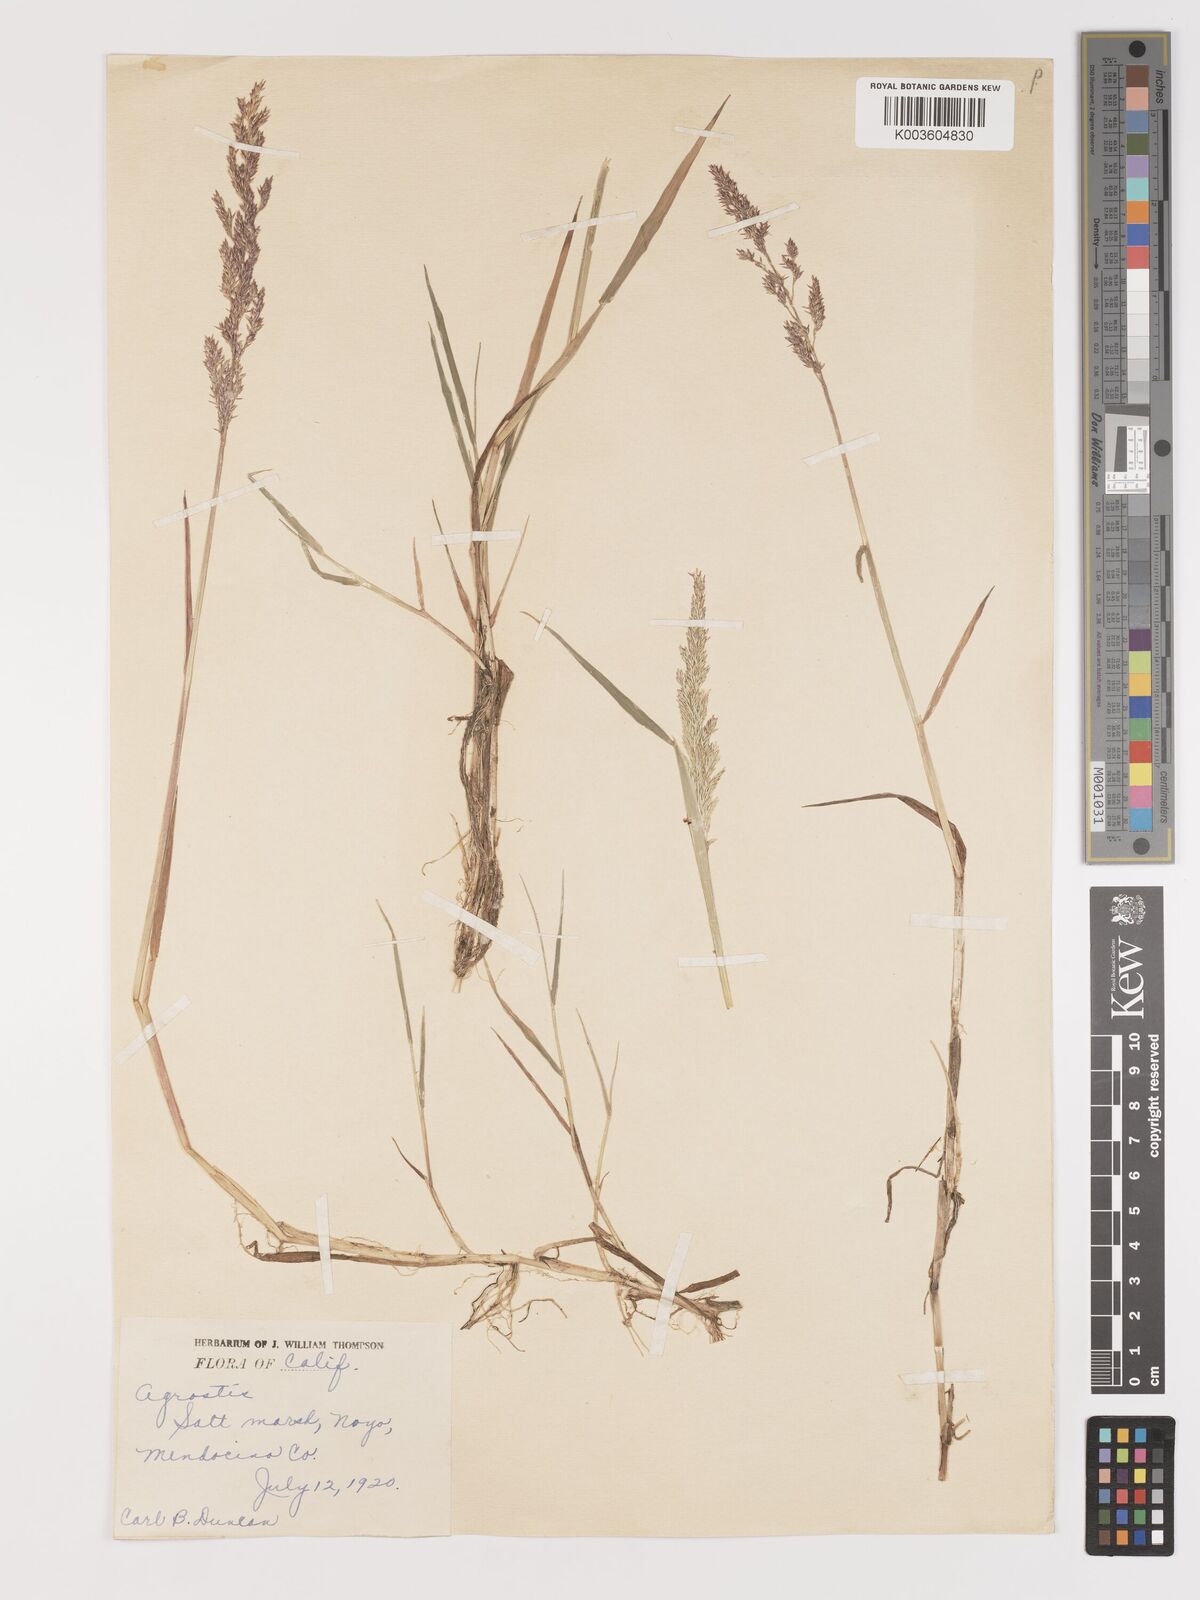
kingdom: Plantae
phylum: Tracheophyta
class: Liliopsida
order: Poales
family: Poaceae
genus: Agrostis
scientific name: Agrostis
